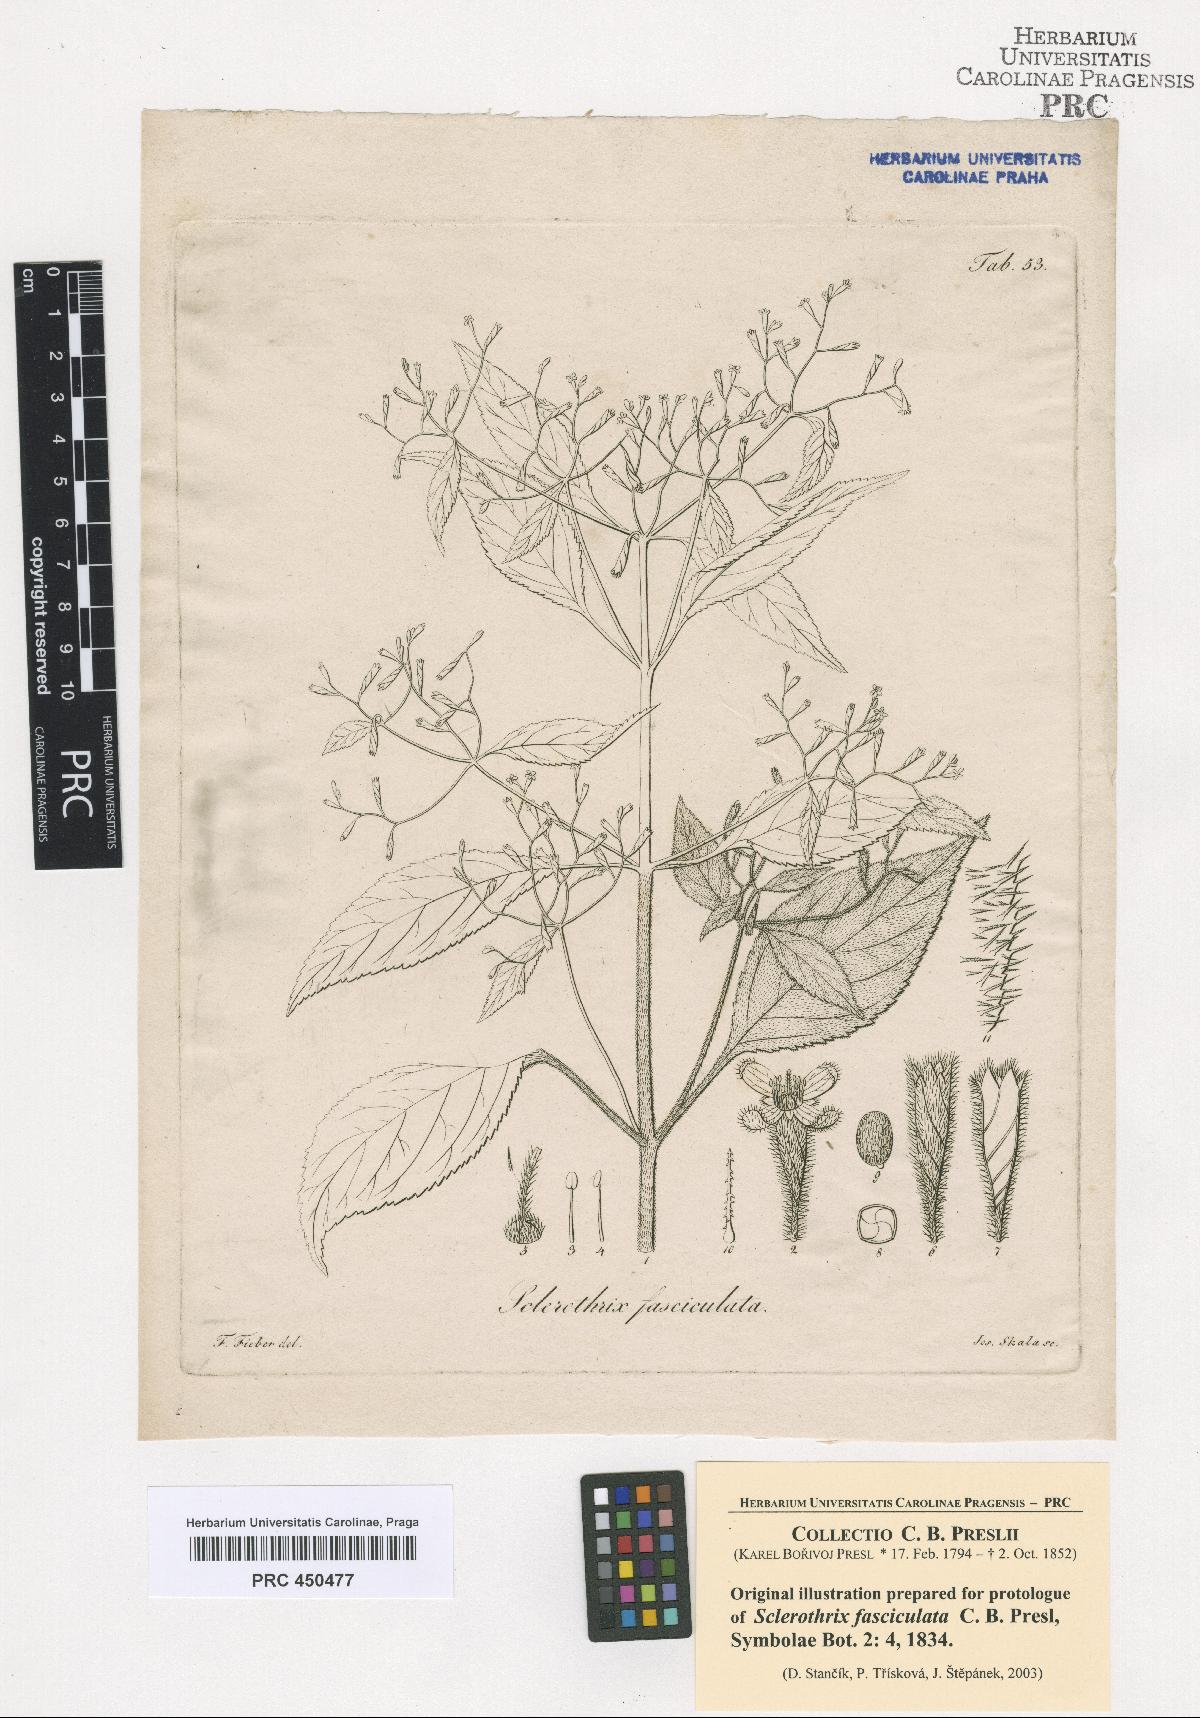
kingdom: Plantae
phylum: Tracheophyta
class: Magnoliopsida
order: Cornales
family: Loasaceae
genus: Klaprothia
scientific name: Klaprothia fasciculata
